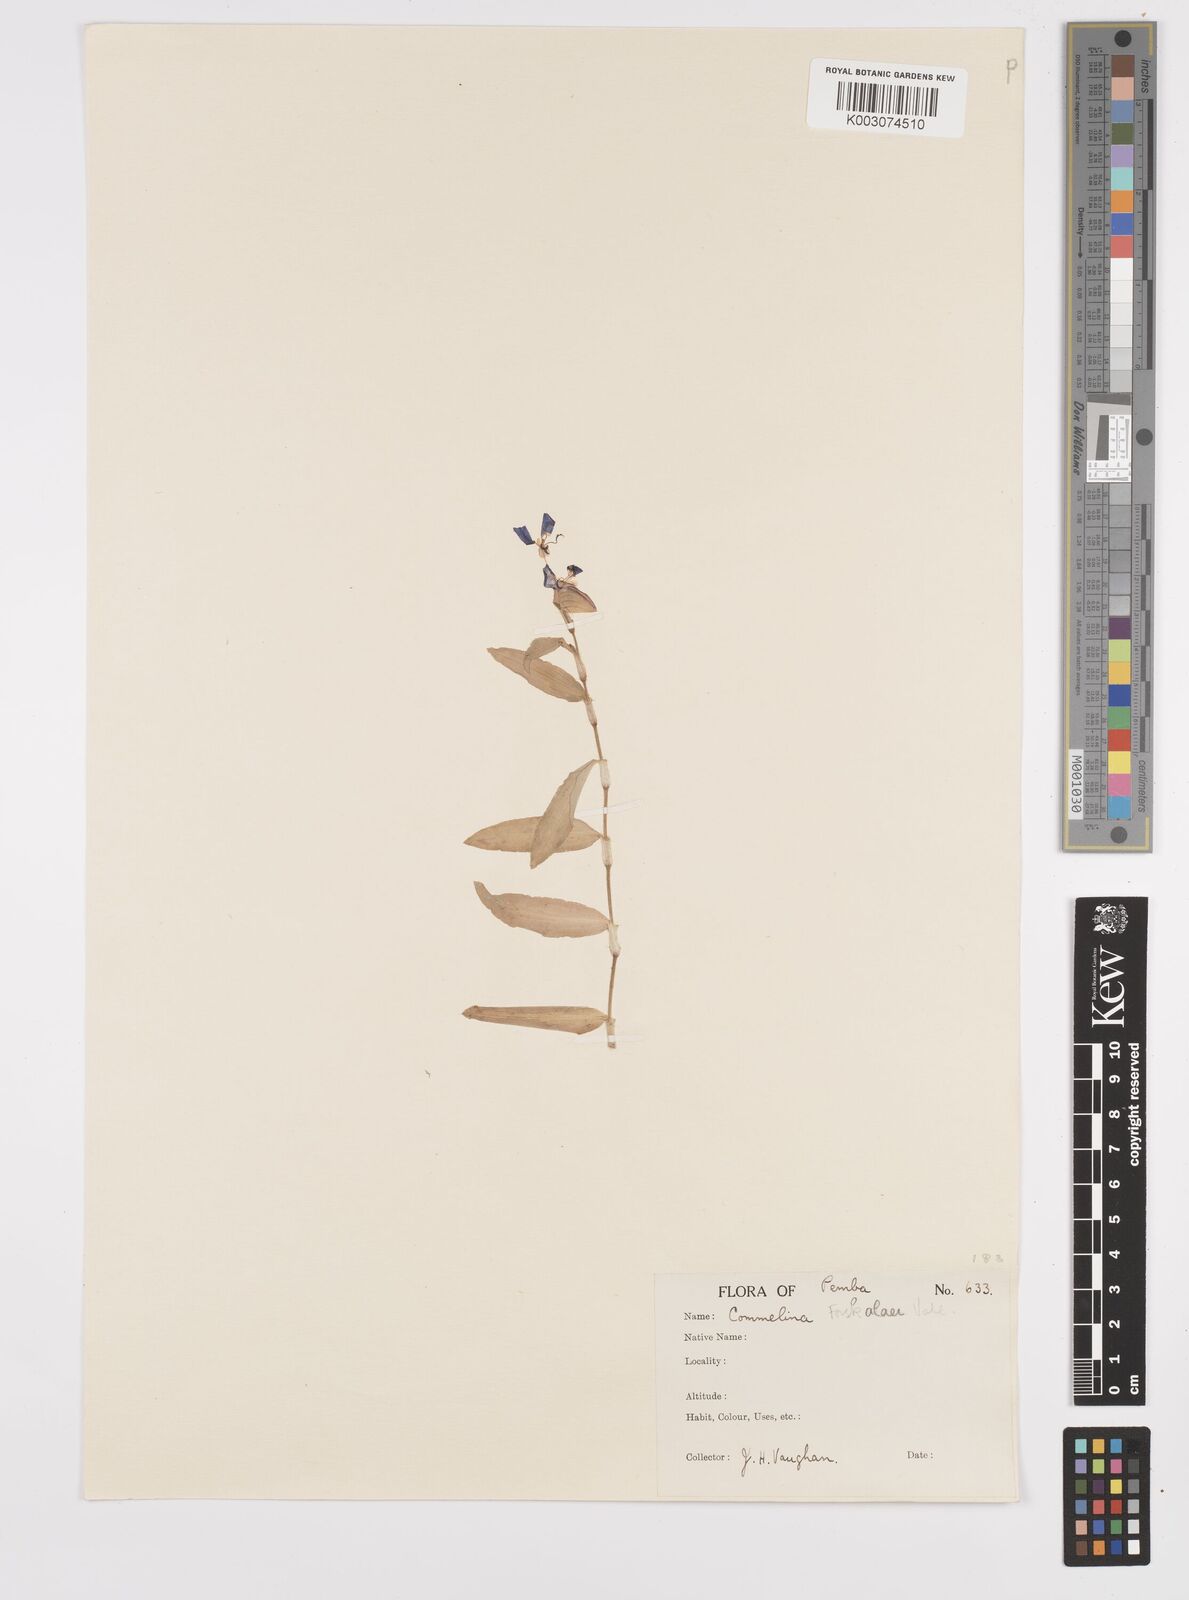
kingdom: Plantae
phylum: Tracheophyta
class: Liliopsida
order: Commelinales
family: Commelinaceae
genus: Commelina
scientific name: Commelina forskaolii
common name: Rat's ear
